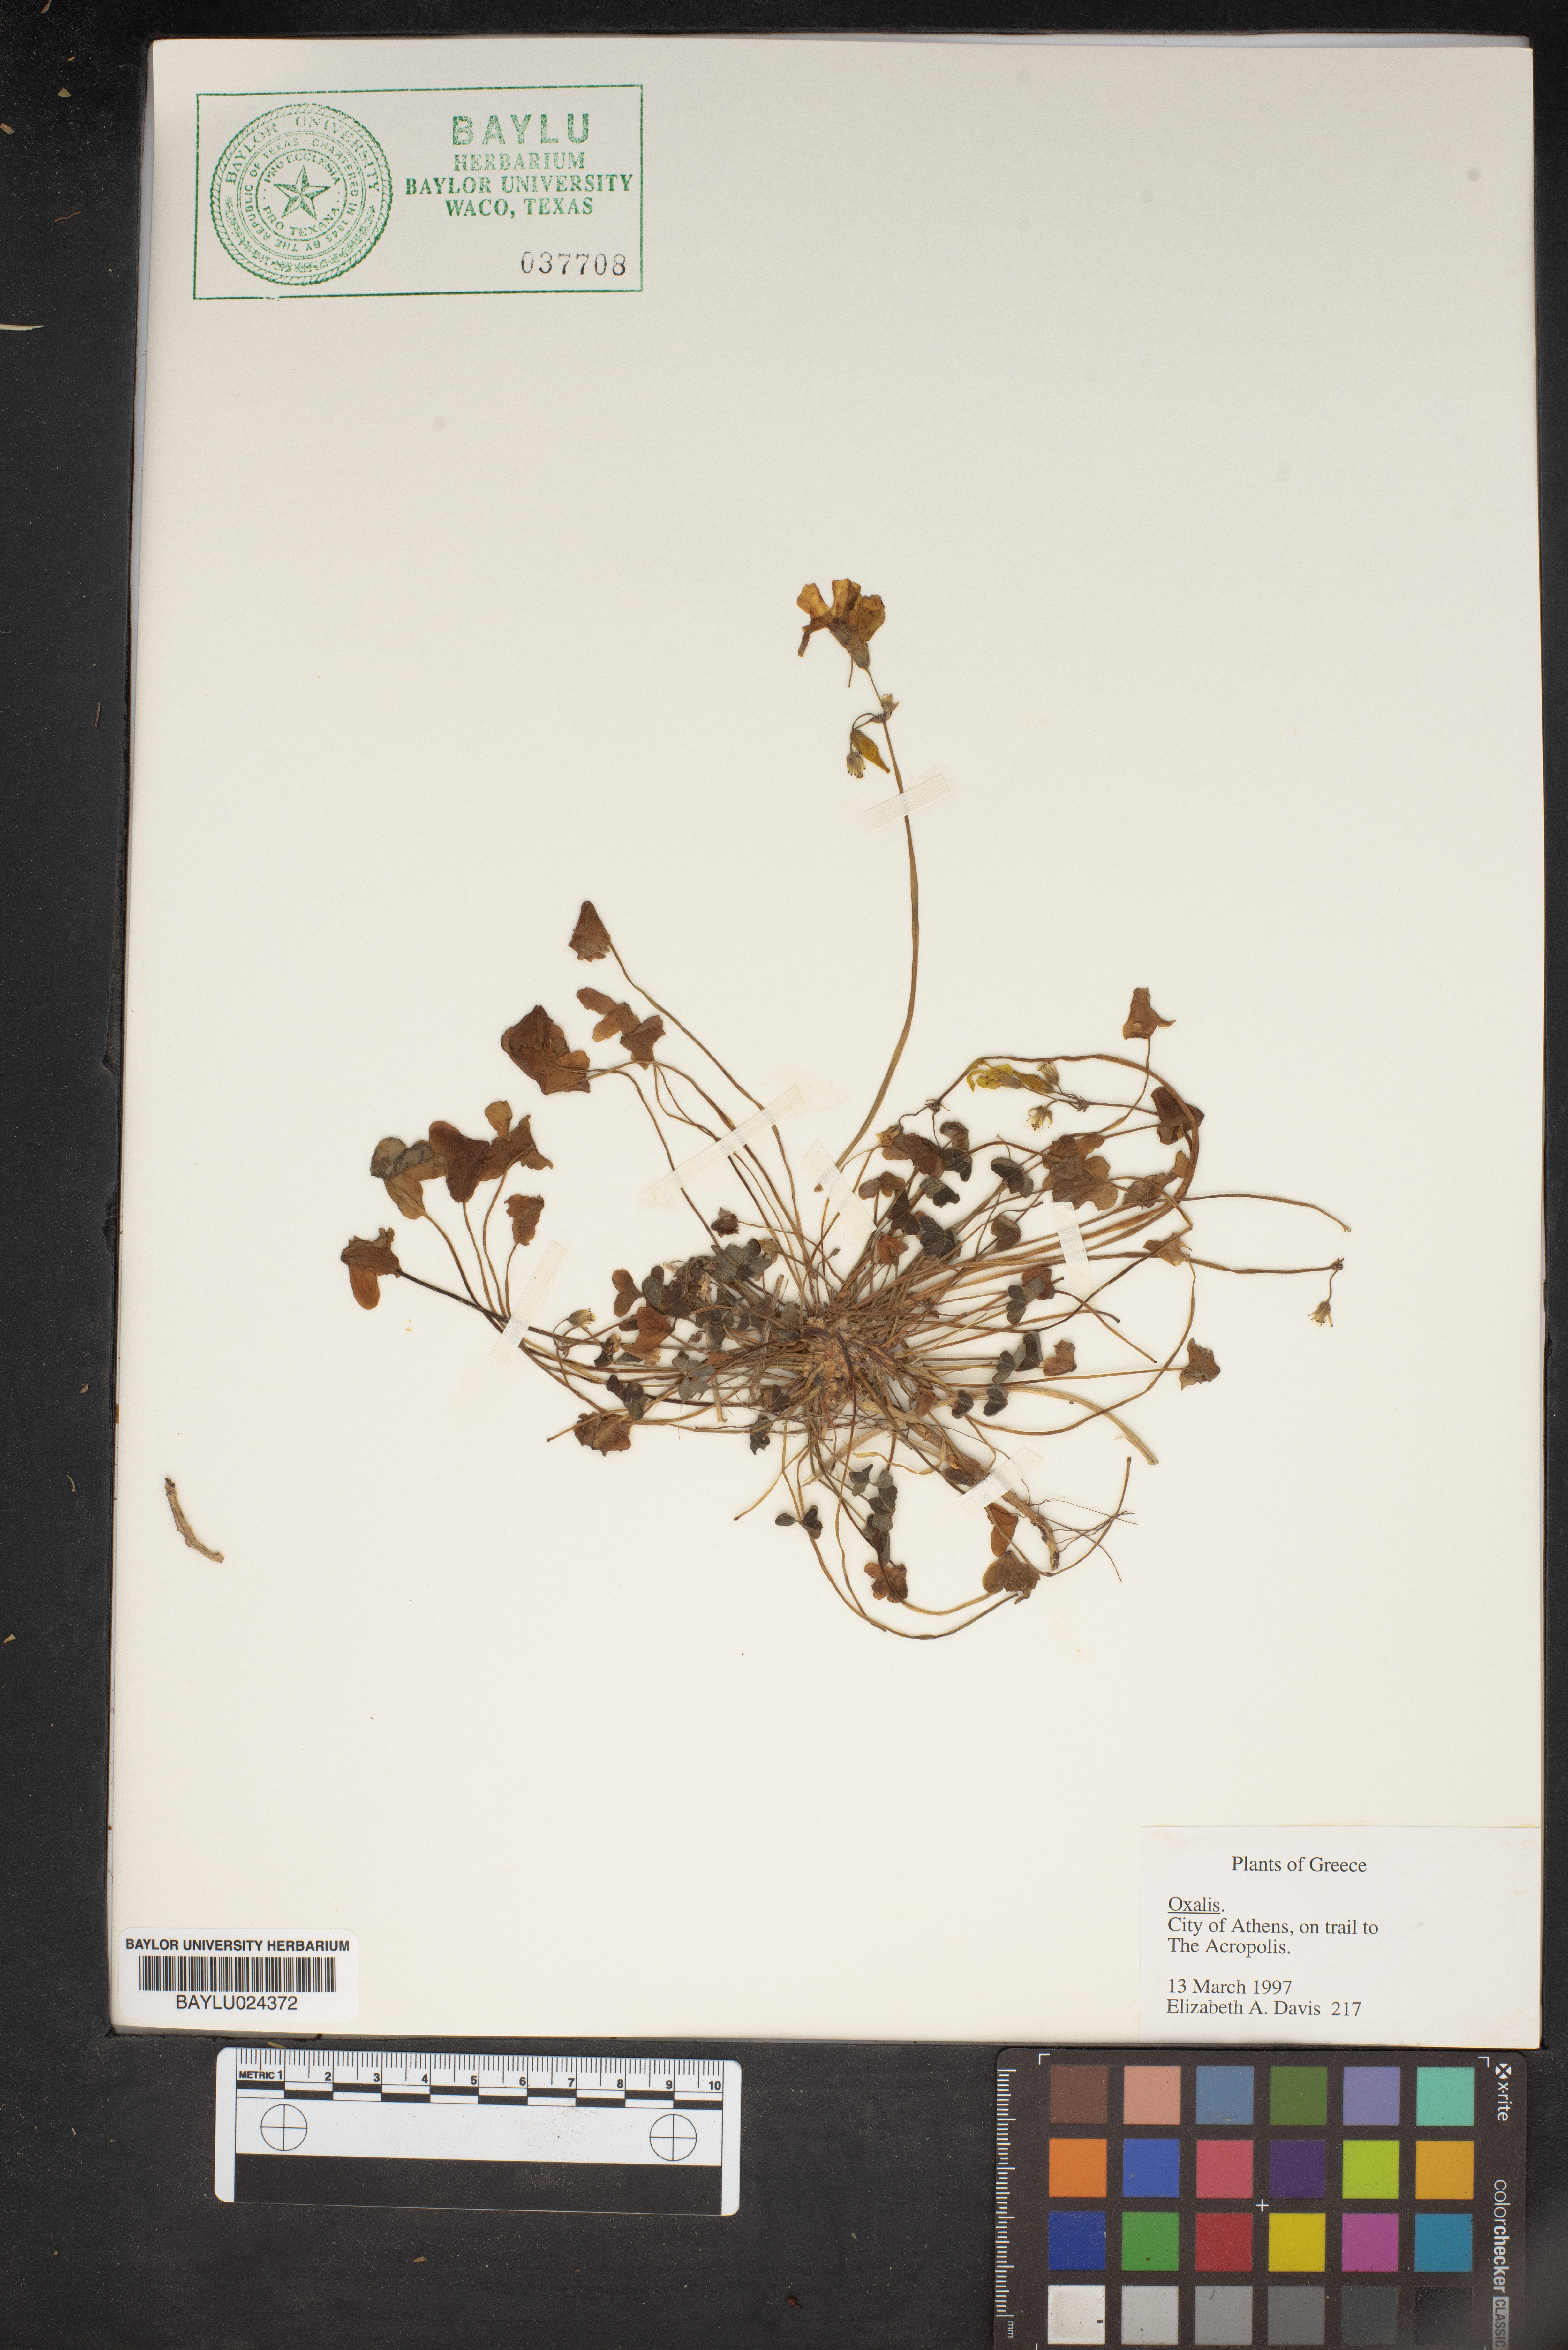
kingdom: Plantae
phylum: Tracheophyta
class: Magnoliopsida
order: Oxalidales
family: Oxalidaceae
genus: Oxalis
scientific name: Oxalis
